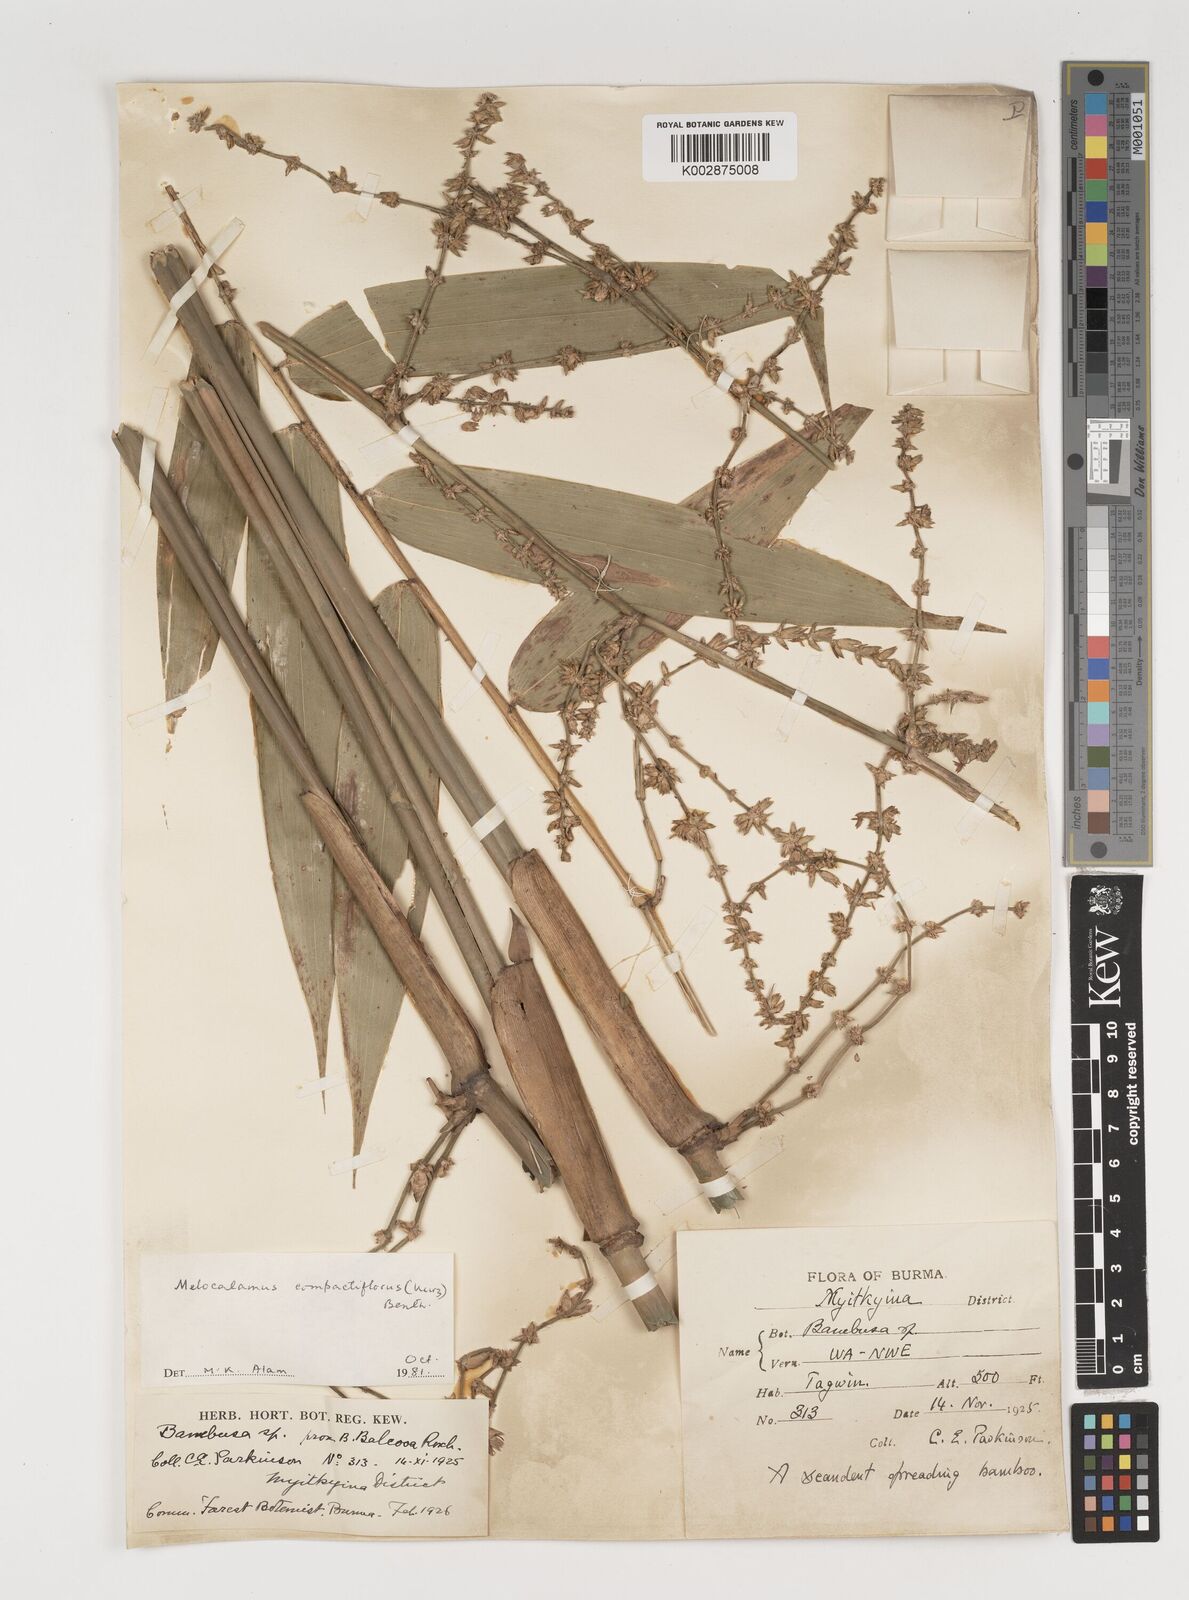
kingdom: Plantae
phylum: Tracheophyta
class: Liliopsida
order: Poales
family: Poaceae
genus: Melocalamus
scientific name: Melocalamus compactiflorus
